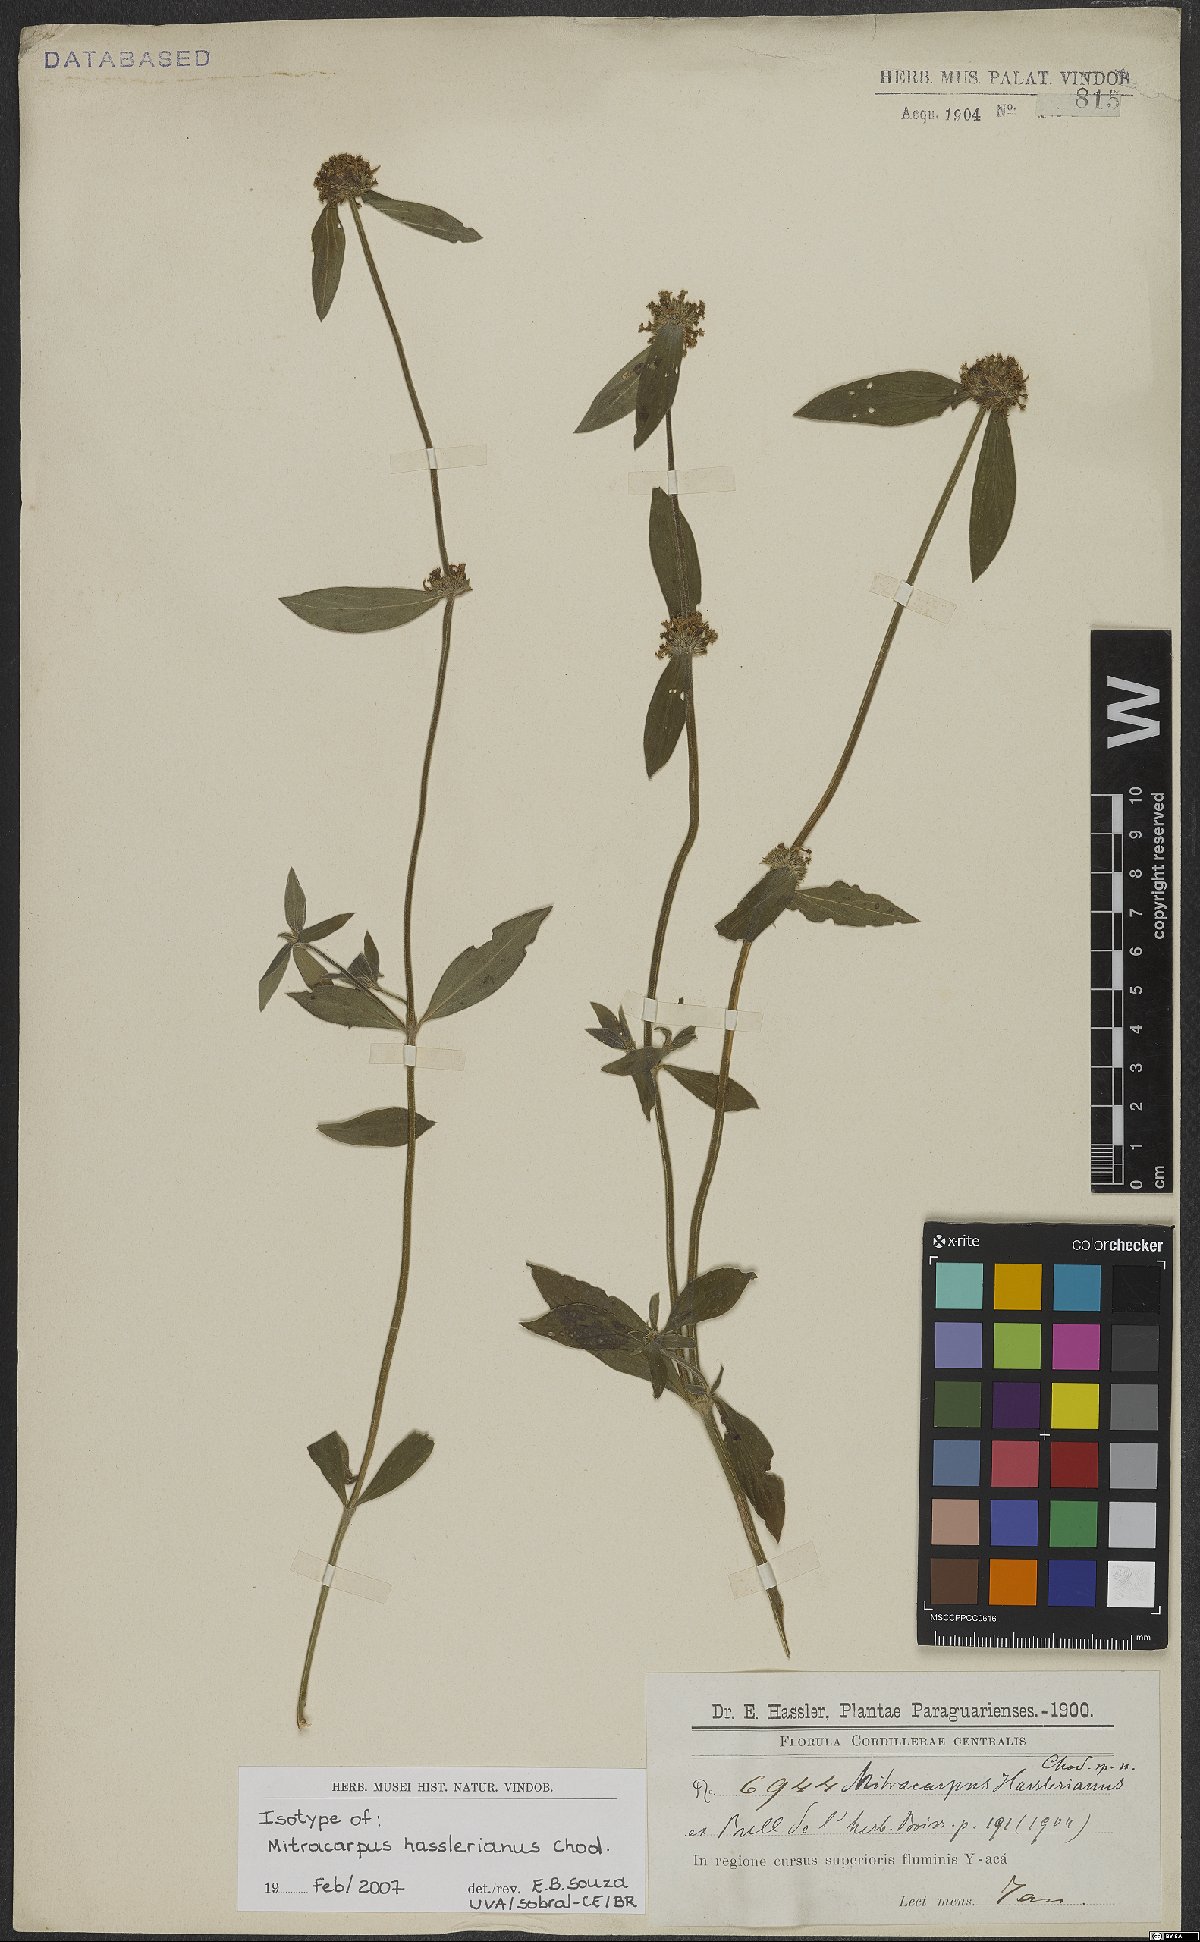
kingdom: Plantae
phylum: Tracheophyta
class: Magnoliopsida
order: Gentianales
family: Rubiaceae
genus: Mitracarpus
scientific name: Mitracarpus hasslerianus
